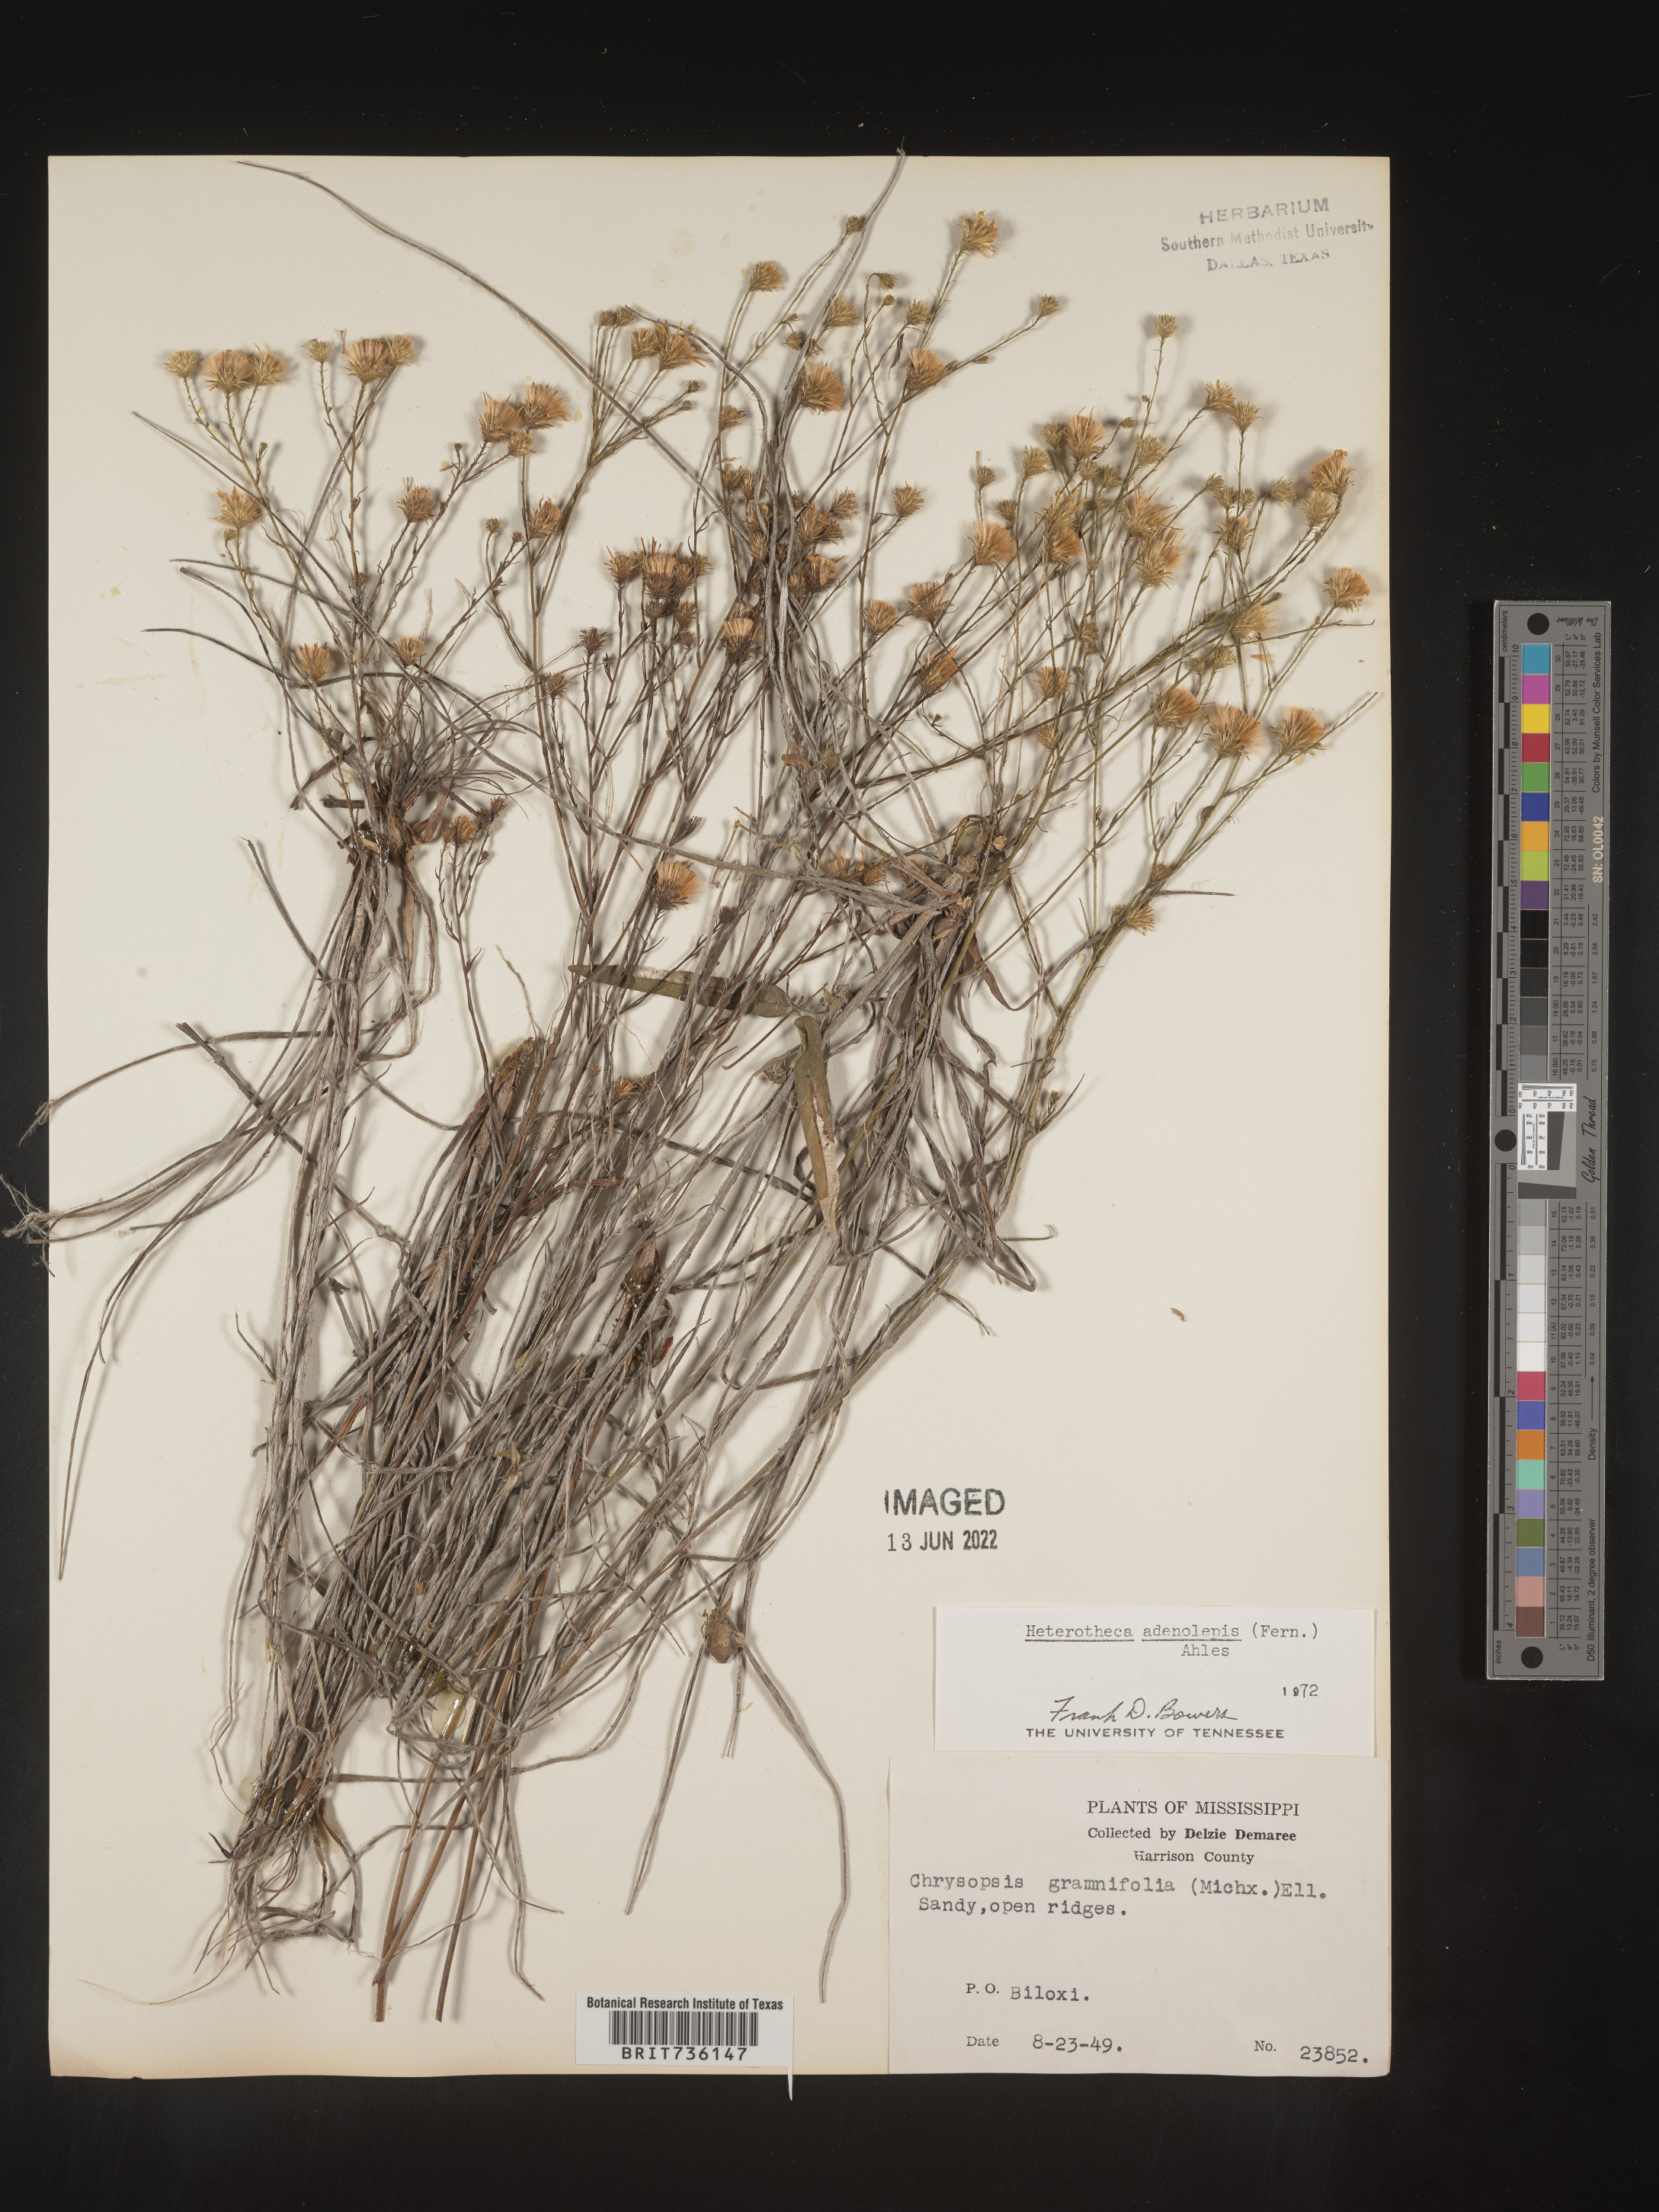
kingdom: Plantae
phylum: Tracheophyta
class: Magnoliopsida
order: Asterales
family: Asteraceae
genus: Pityopsis
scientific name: Pityopsis aspera
